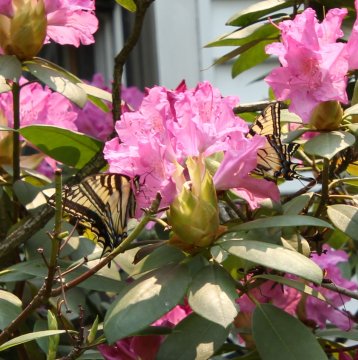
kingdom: Animalia
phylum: Arthropoda
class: Insecta
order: Lepidoptera
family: Papilionidae
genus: Pterourus
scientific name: Pterourus canadensis
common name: Canadian Tiger Swallowtail
